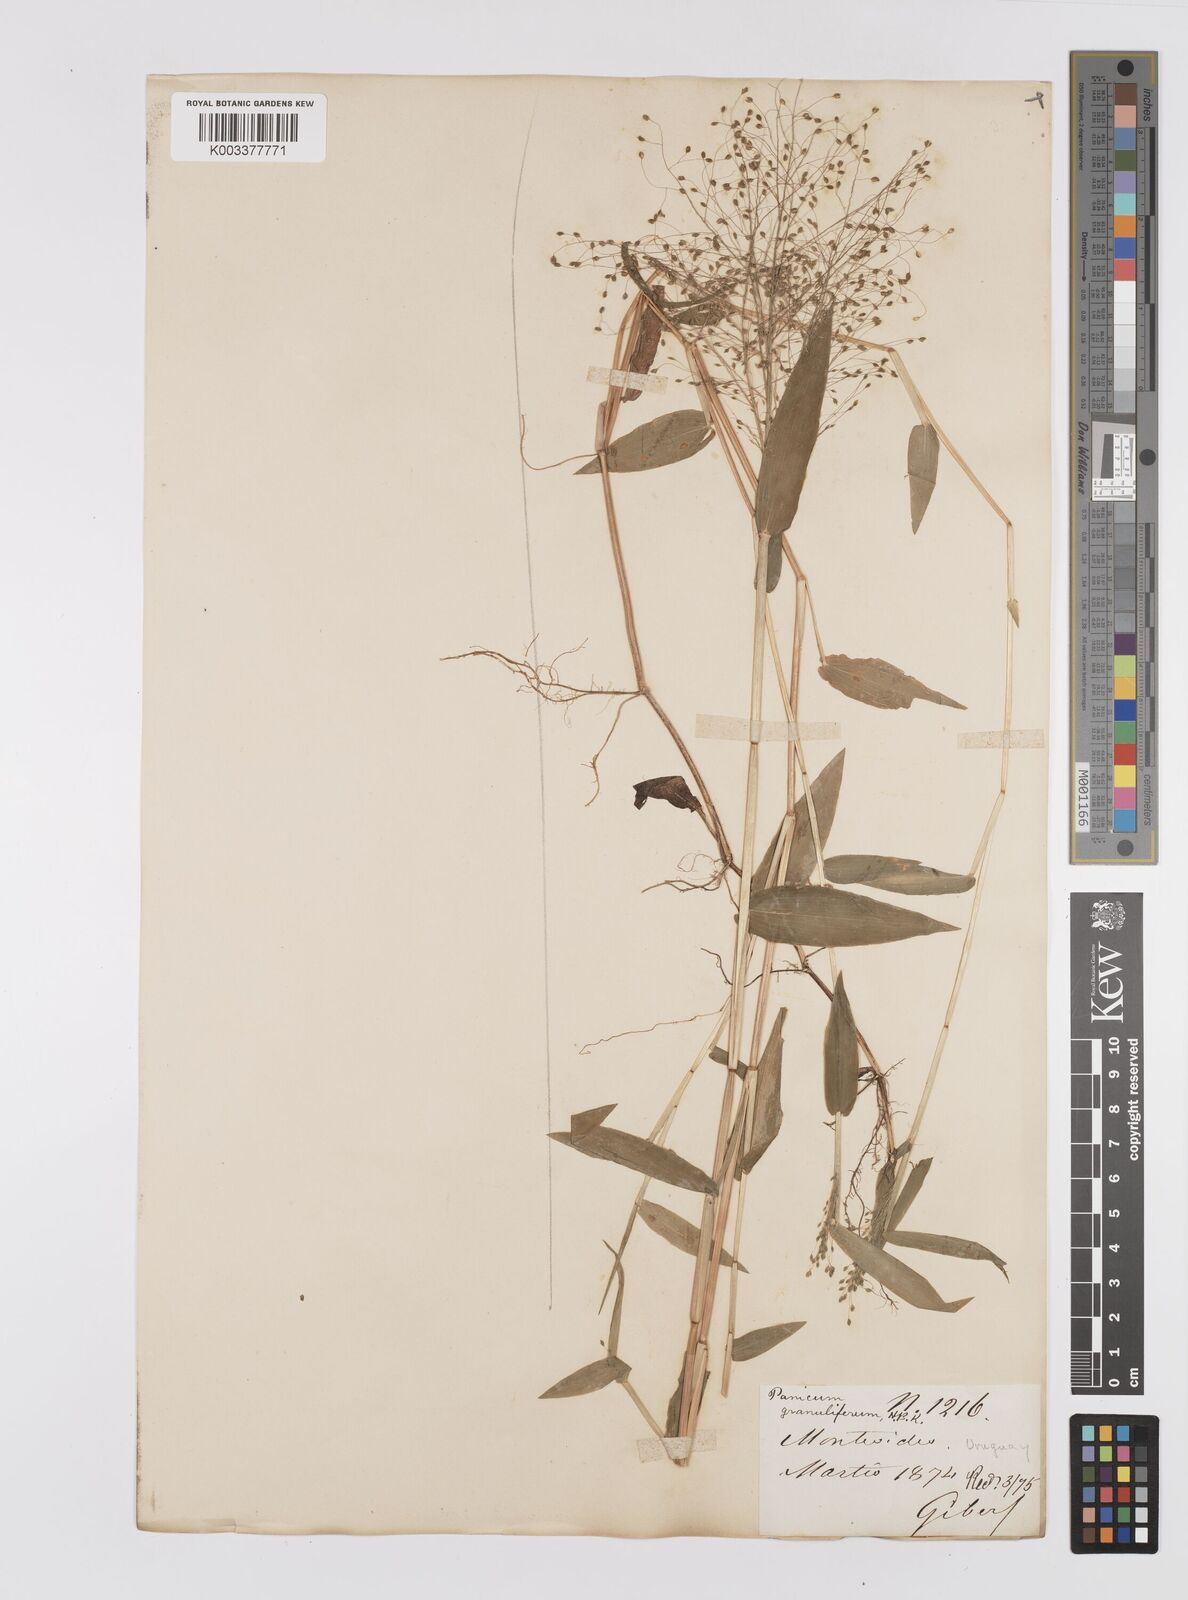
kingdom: Plantae
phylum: Tracheophyta
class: Liliopsida
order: Poales
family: Poaceae
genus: Trichanthecium
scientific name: Trichanthecium schwackeanum
